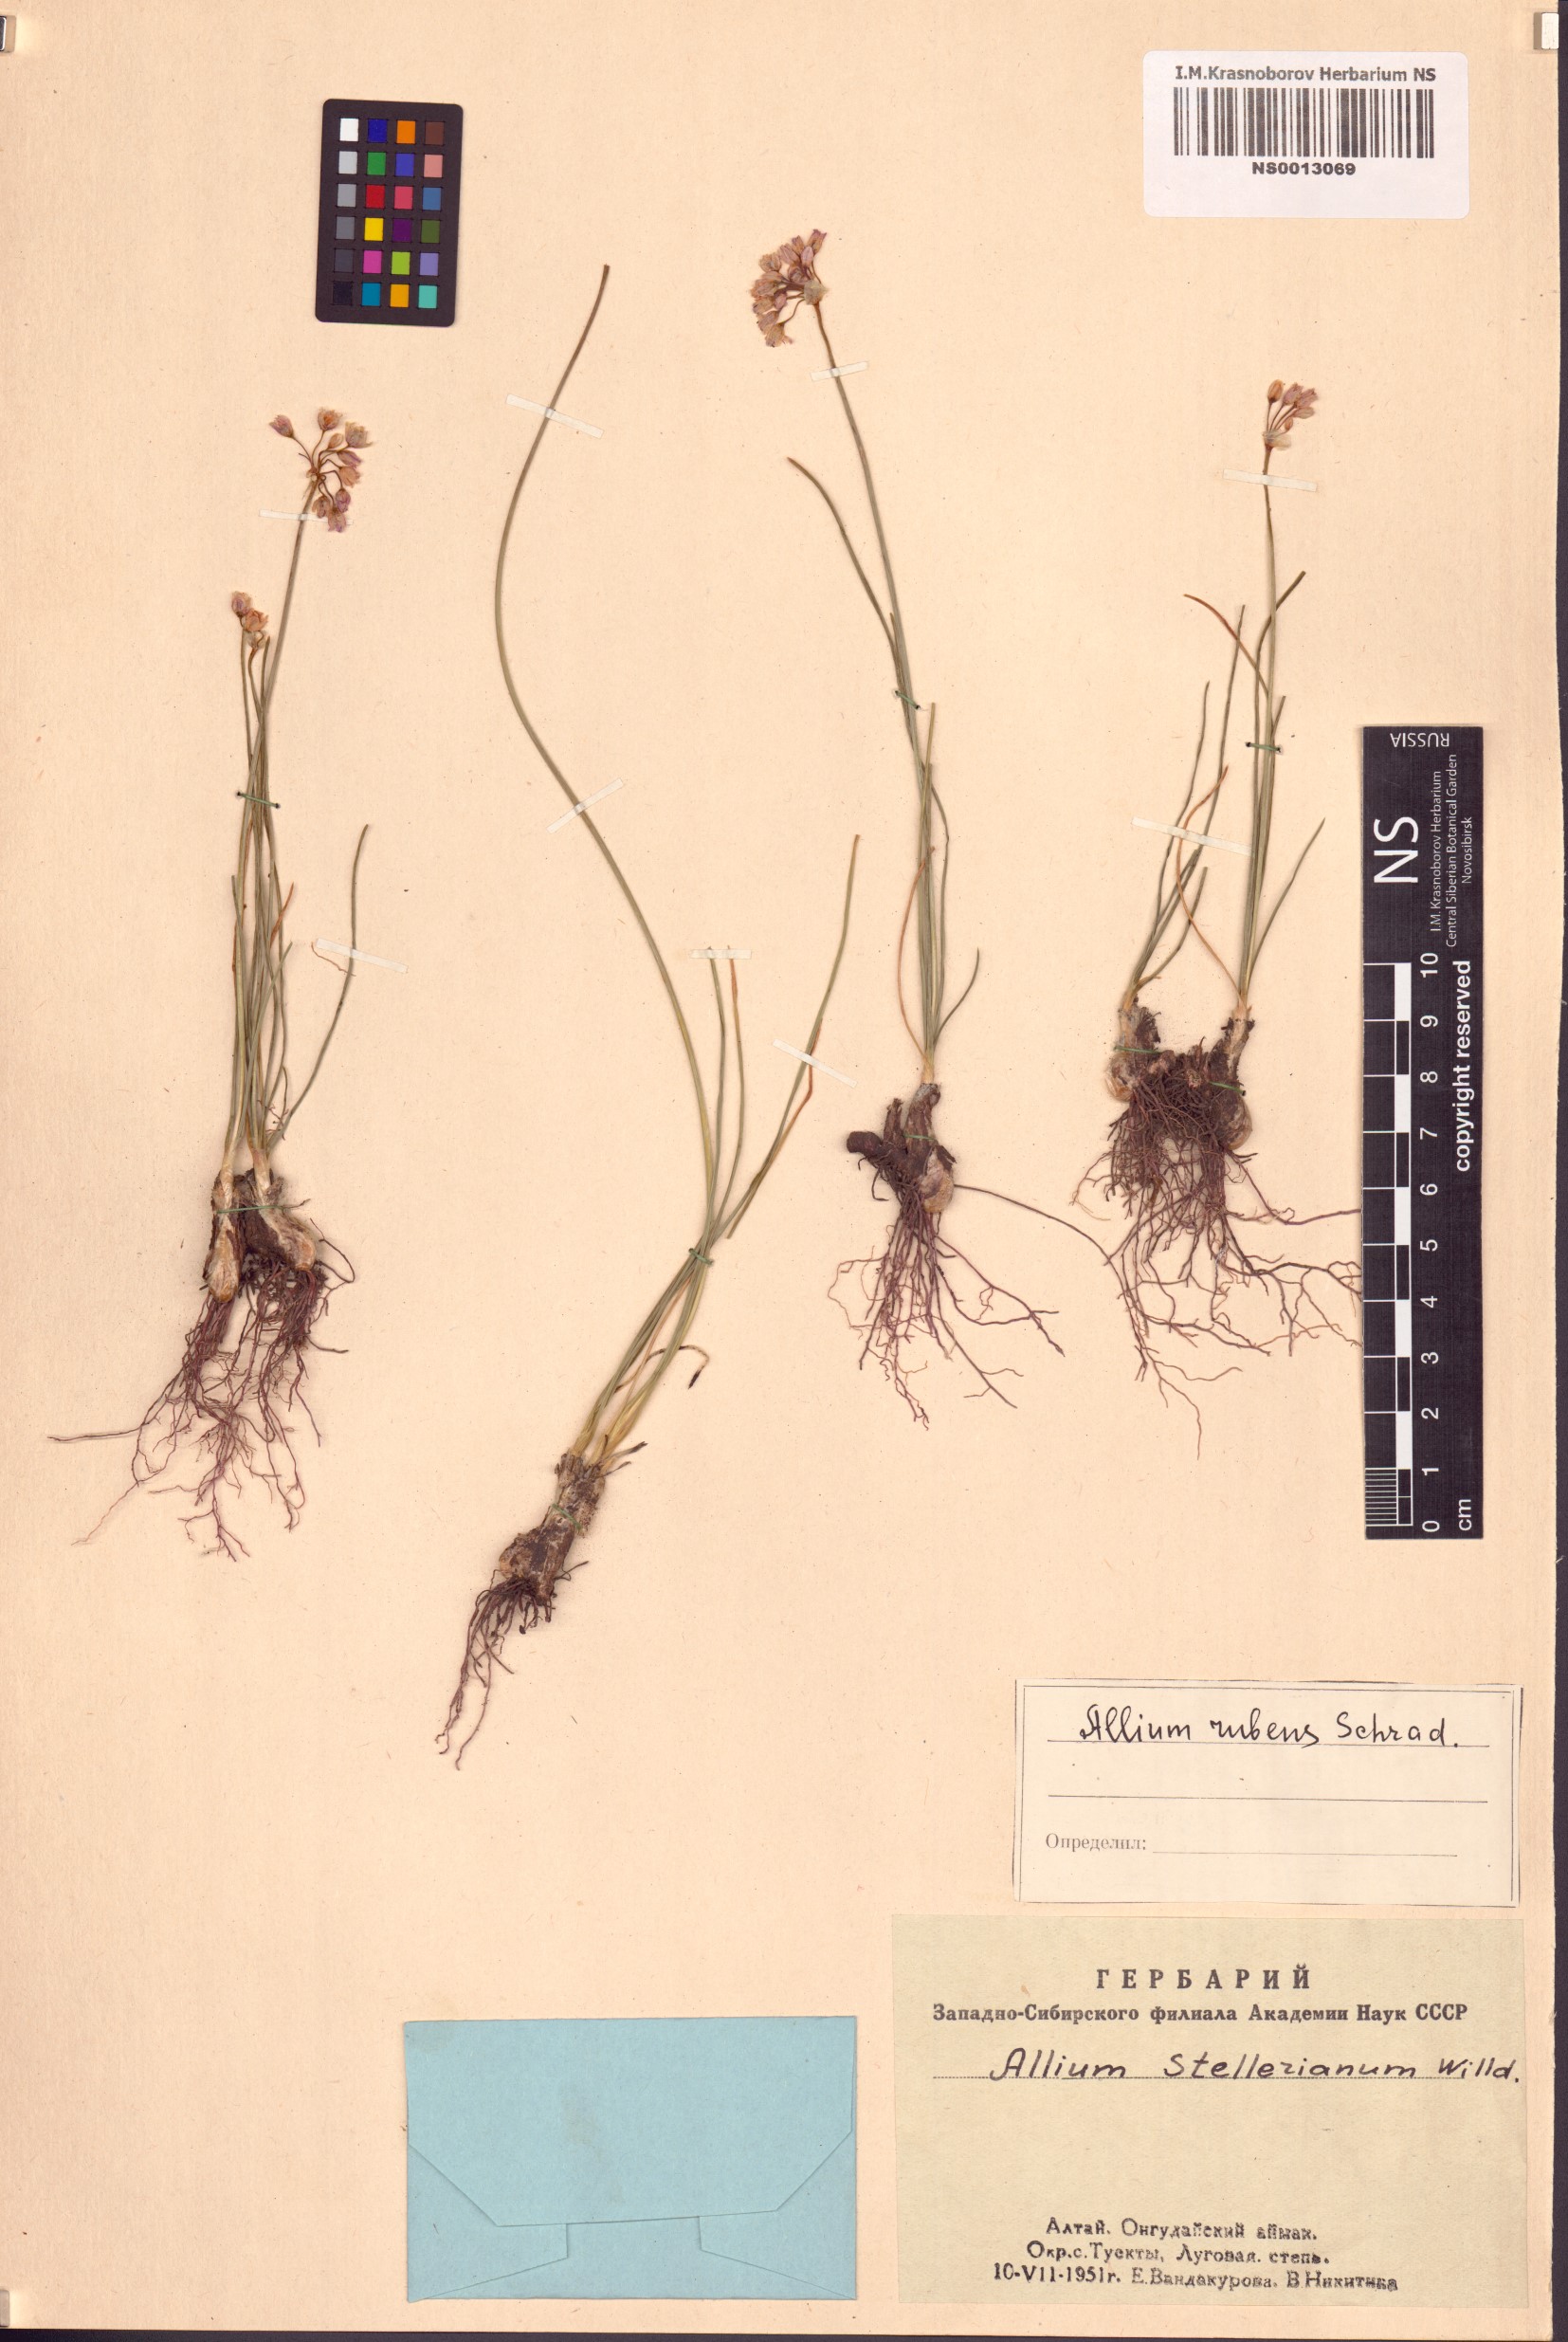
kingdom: Plantae
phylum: Tracheophyta
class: Liliopsida
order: Asparagales
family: Amaryllidaceae
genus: Allium
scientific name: Allium rubens
